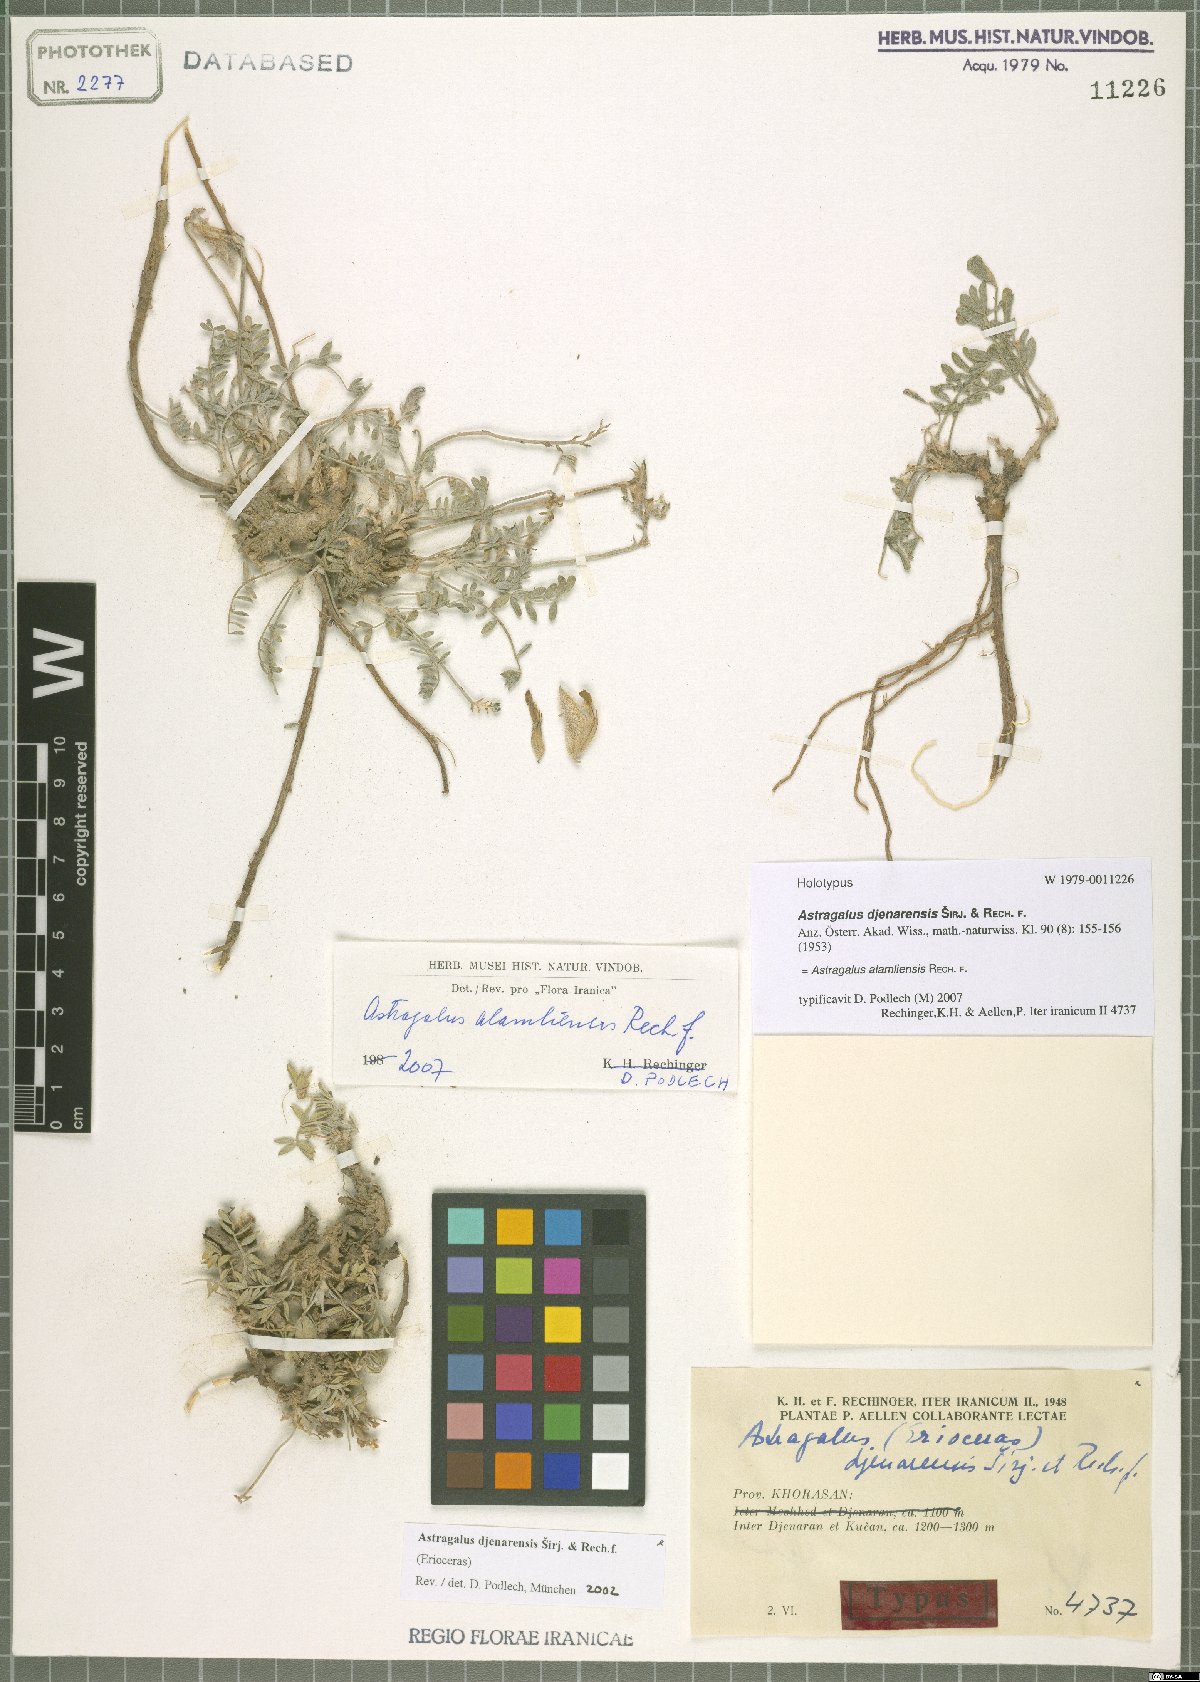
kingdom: Plantae
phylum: Tracheophyta
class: Magnoliopsida
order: Fabales
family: Fabaceae
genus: Astragalus
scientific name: Astragalus alamliensis
